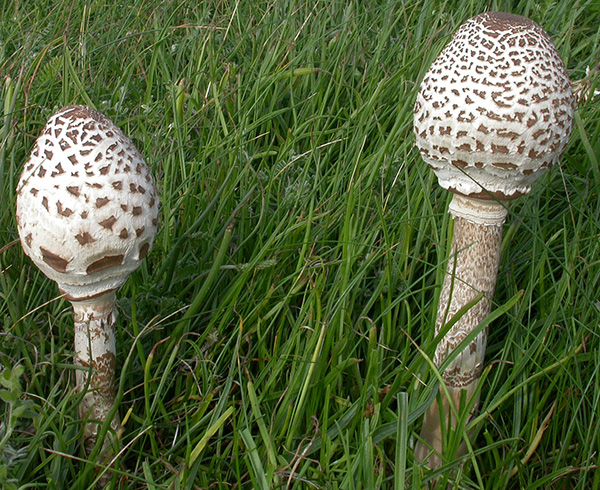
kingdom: Fungi
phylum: Basidiomycota
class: Agaricomycetes
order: Agaricales
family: Agaricaceae
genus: Macrolepiota
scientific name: Macrolepiota procera
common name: stor kæmpeparasolhat
